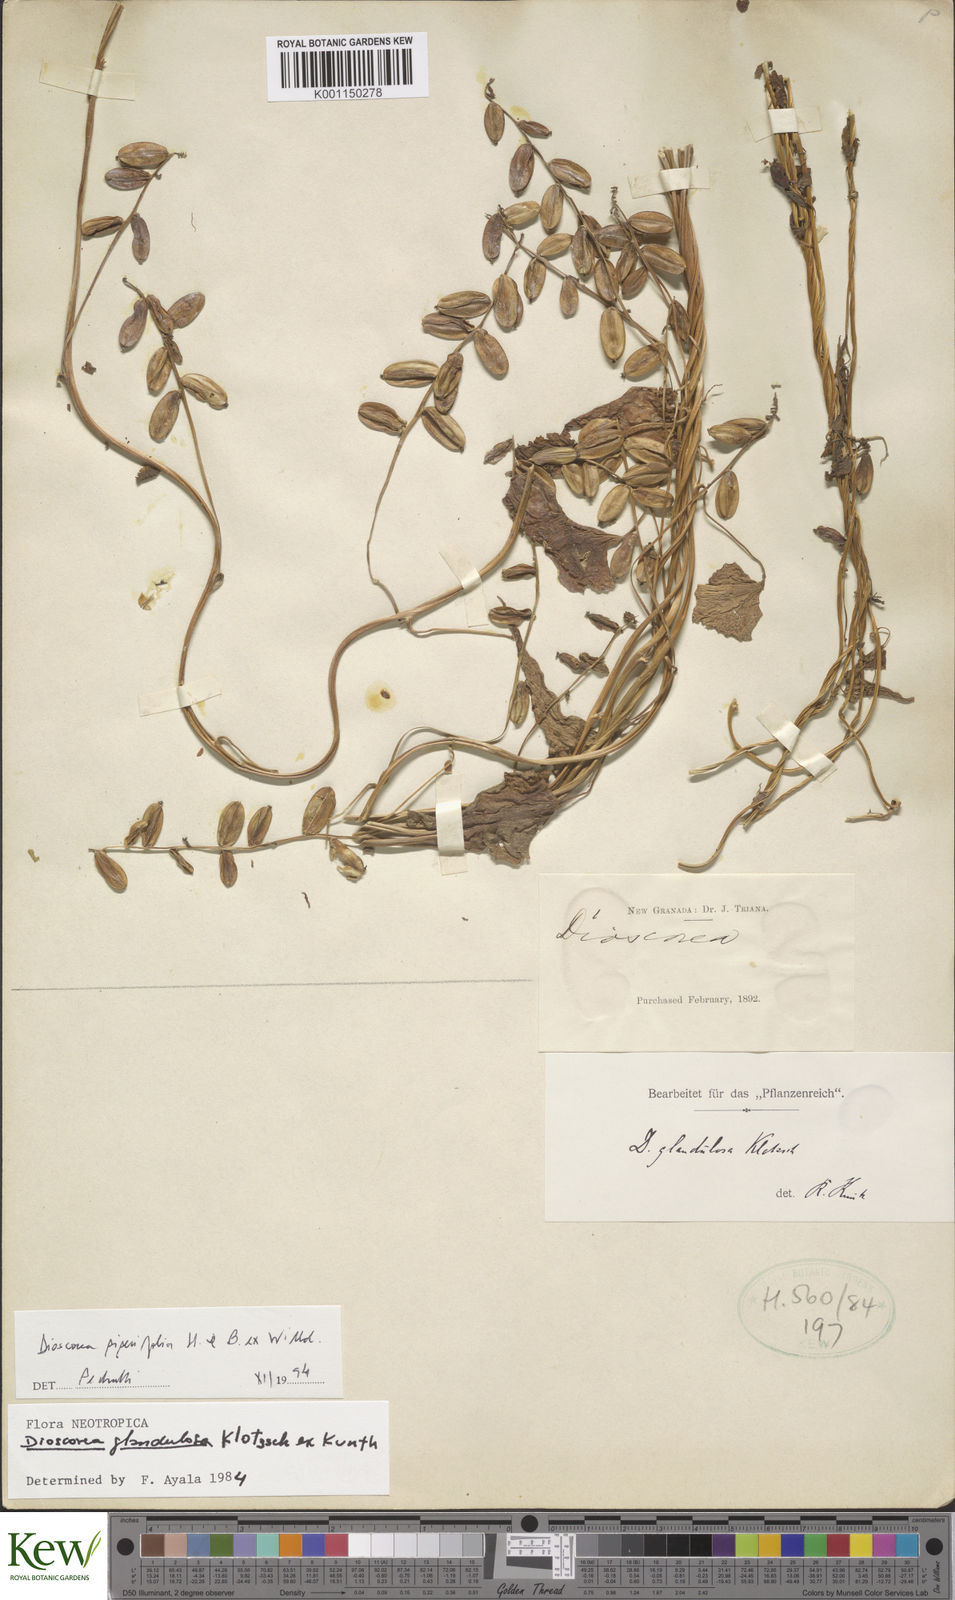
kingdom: Plantae
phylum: Tracheophyta
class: Liliopsida
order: Dioscoreales
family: Dioscoreaceae
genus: Dioscorea
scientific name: Dioscorea piperifolia
